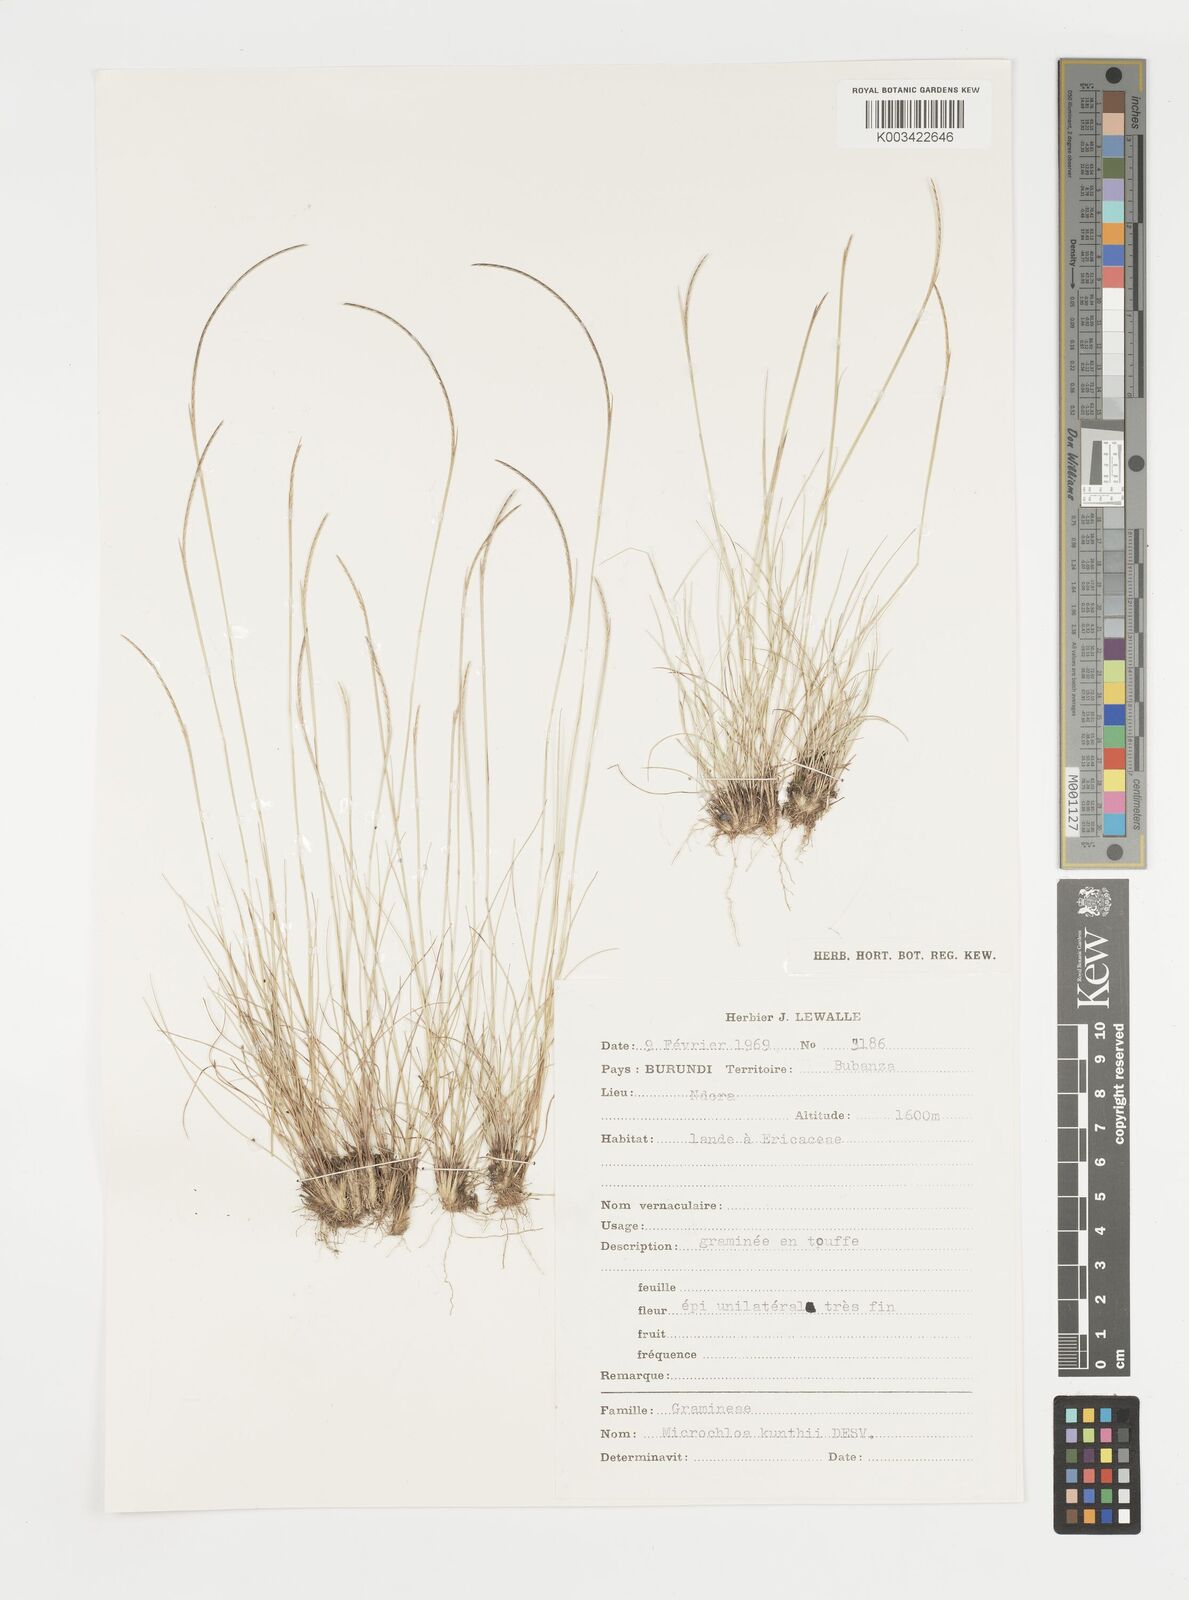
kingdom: Plantae
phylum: Tracheophyta
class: Liliopsida
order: Poales
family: Poaceae
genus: Microchloa
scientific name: Microchloa kunthii
